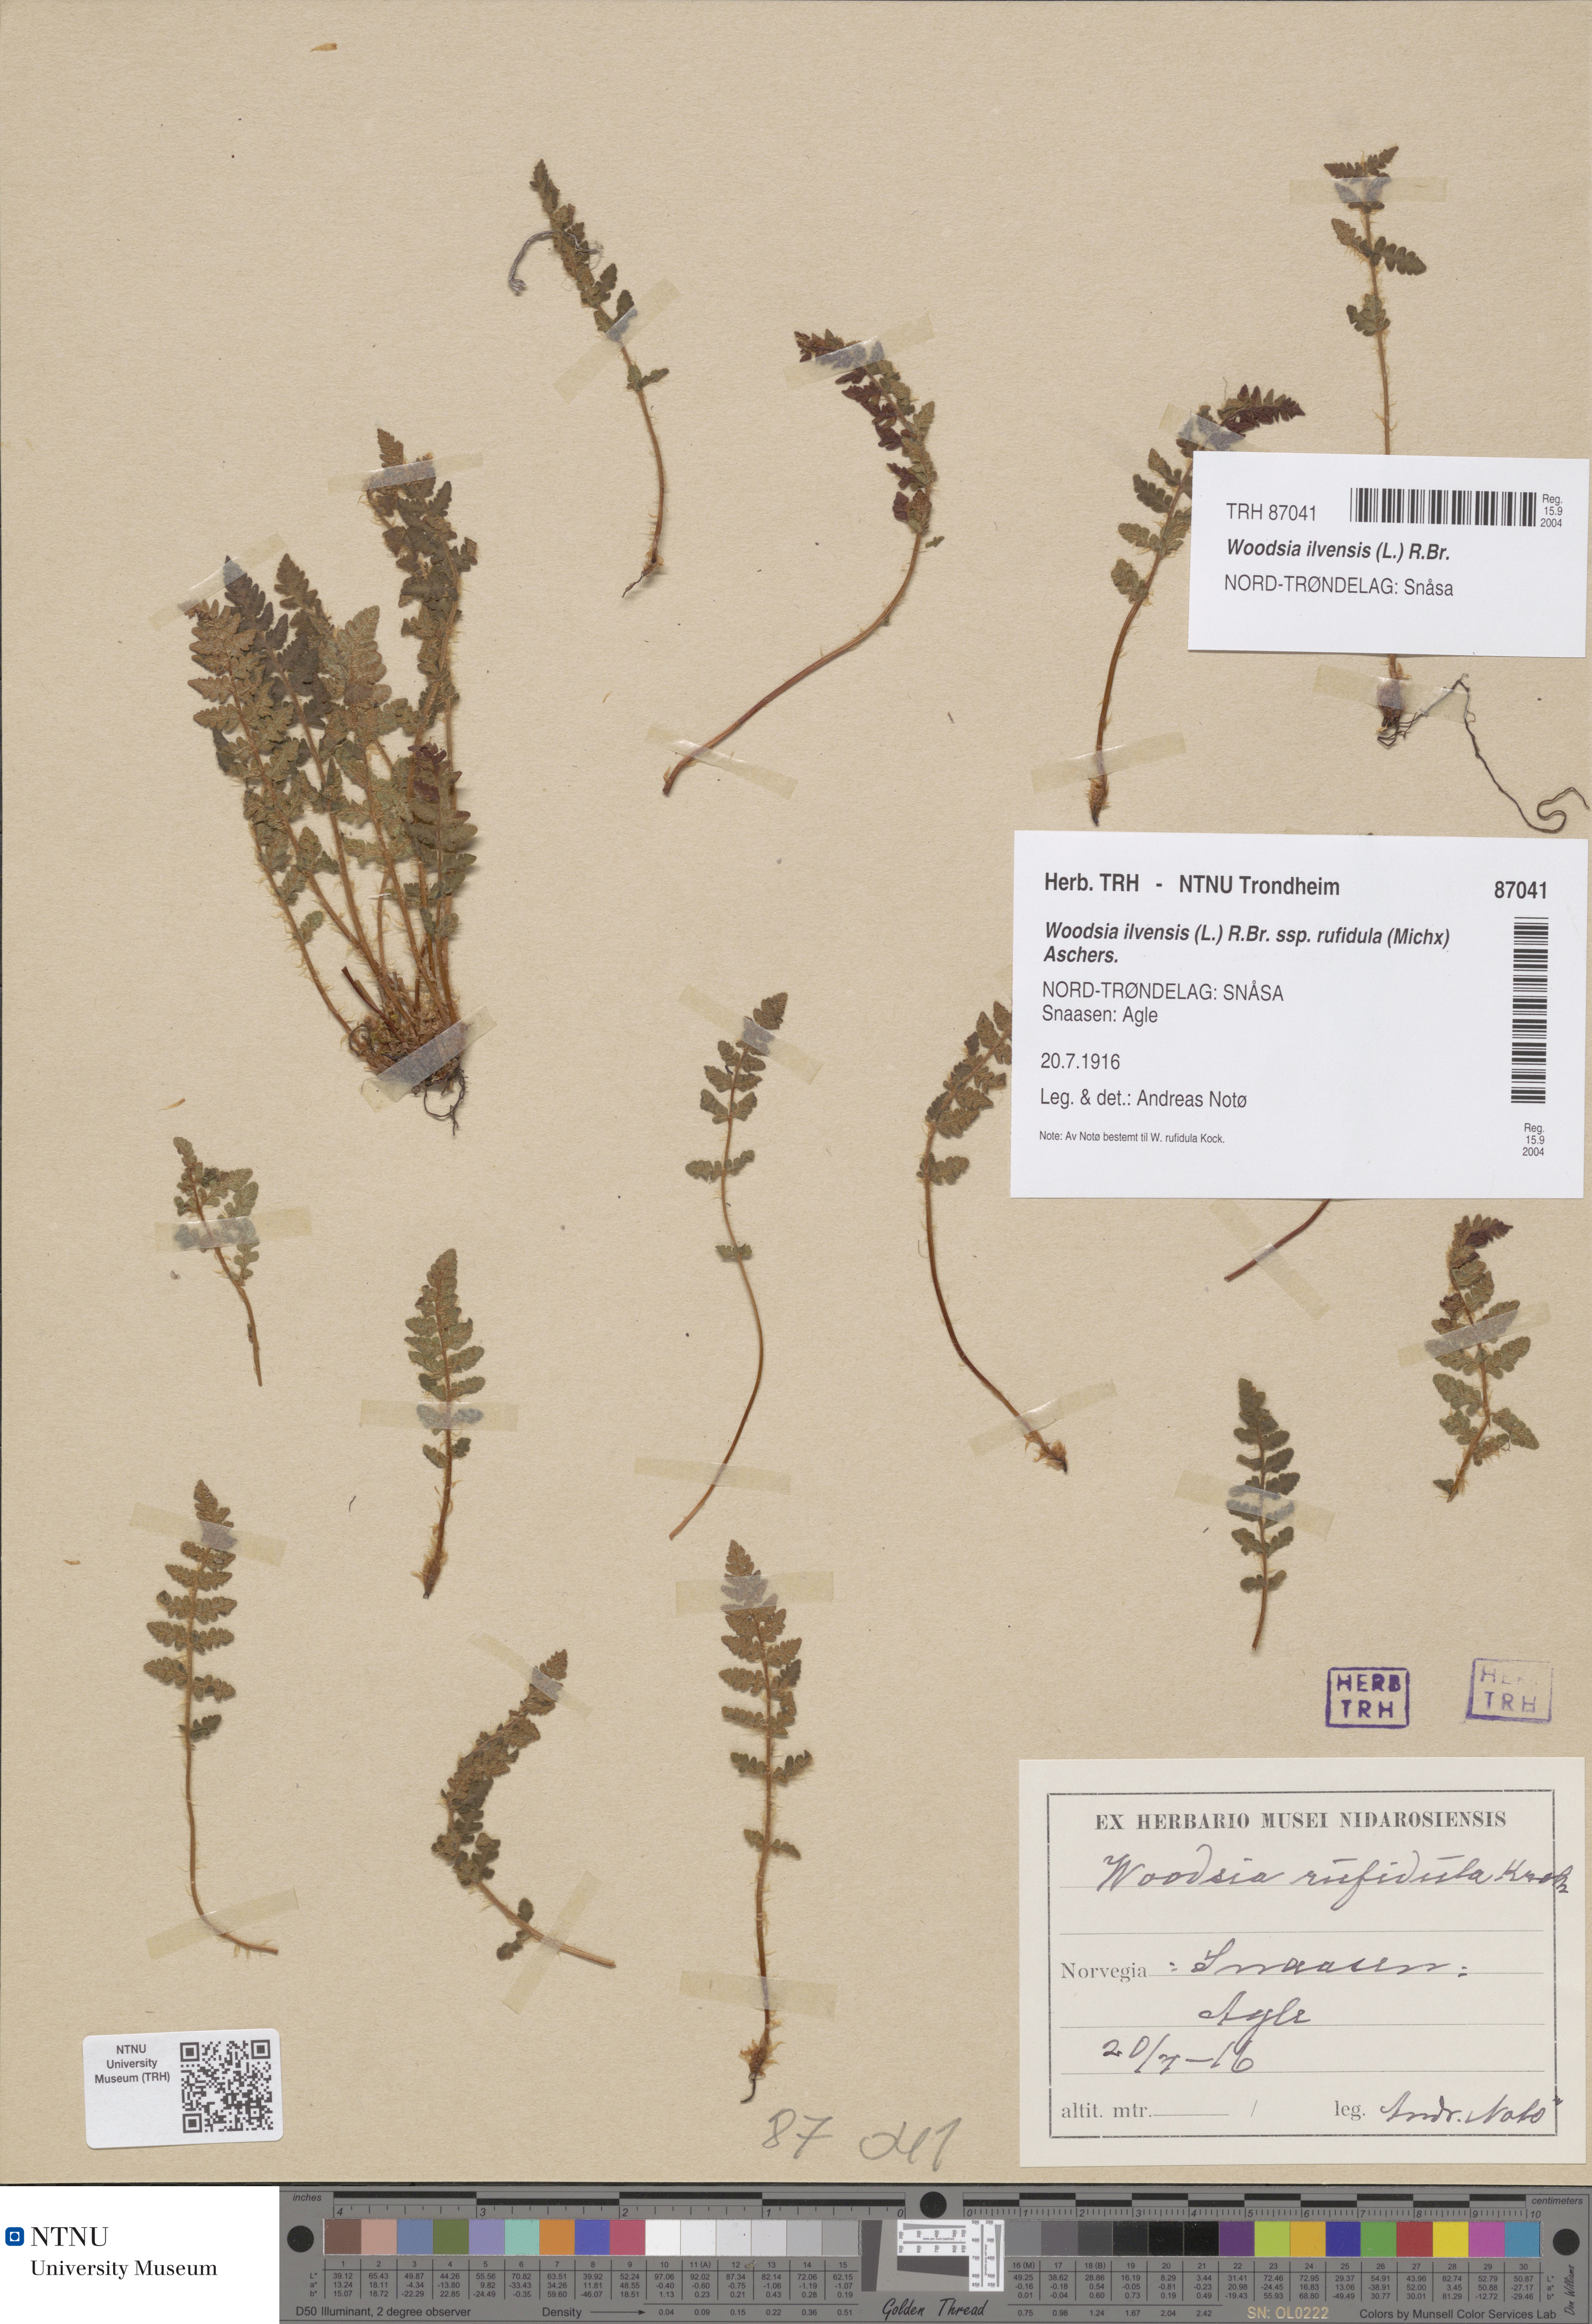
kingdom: Plantae
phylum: Tracheophyta
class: Polypodiopsida
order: Polypodiales
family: Woodsiaceae
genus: Woodsia
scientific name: Woodsia ilvensis
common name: Fragrant woodsia
